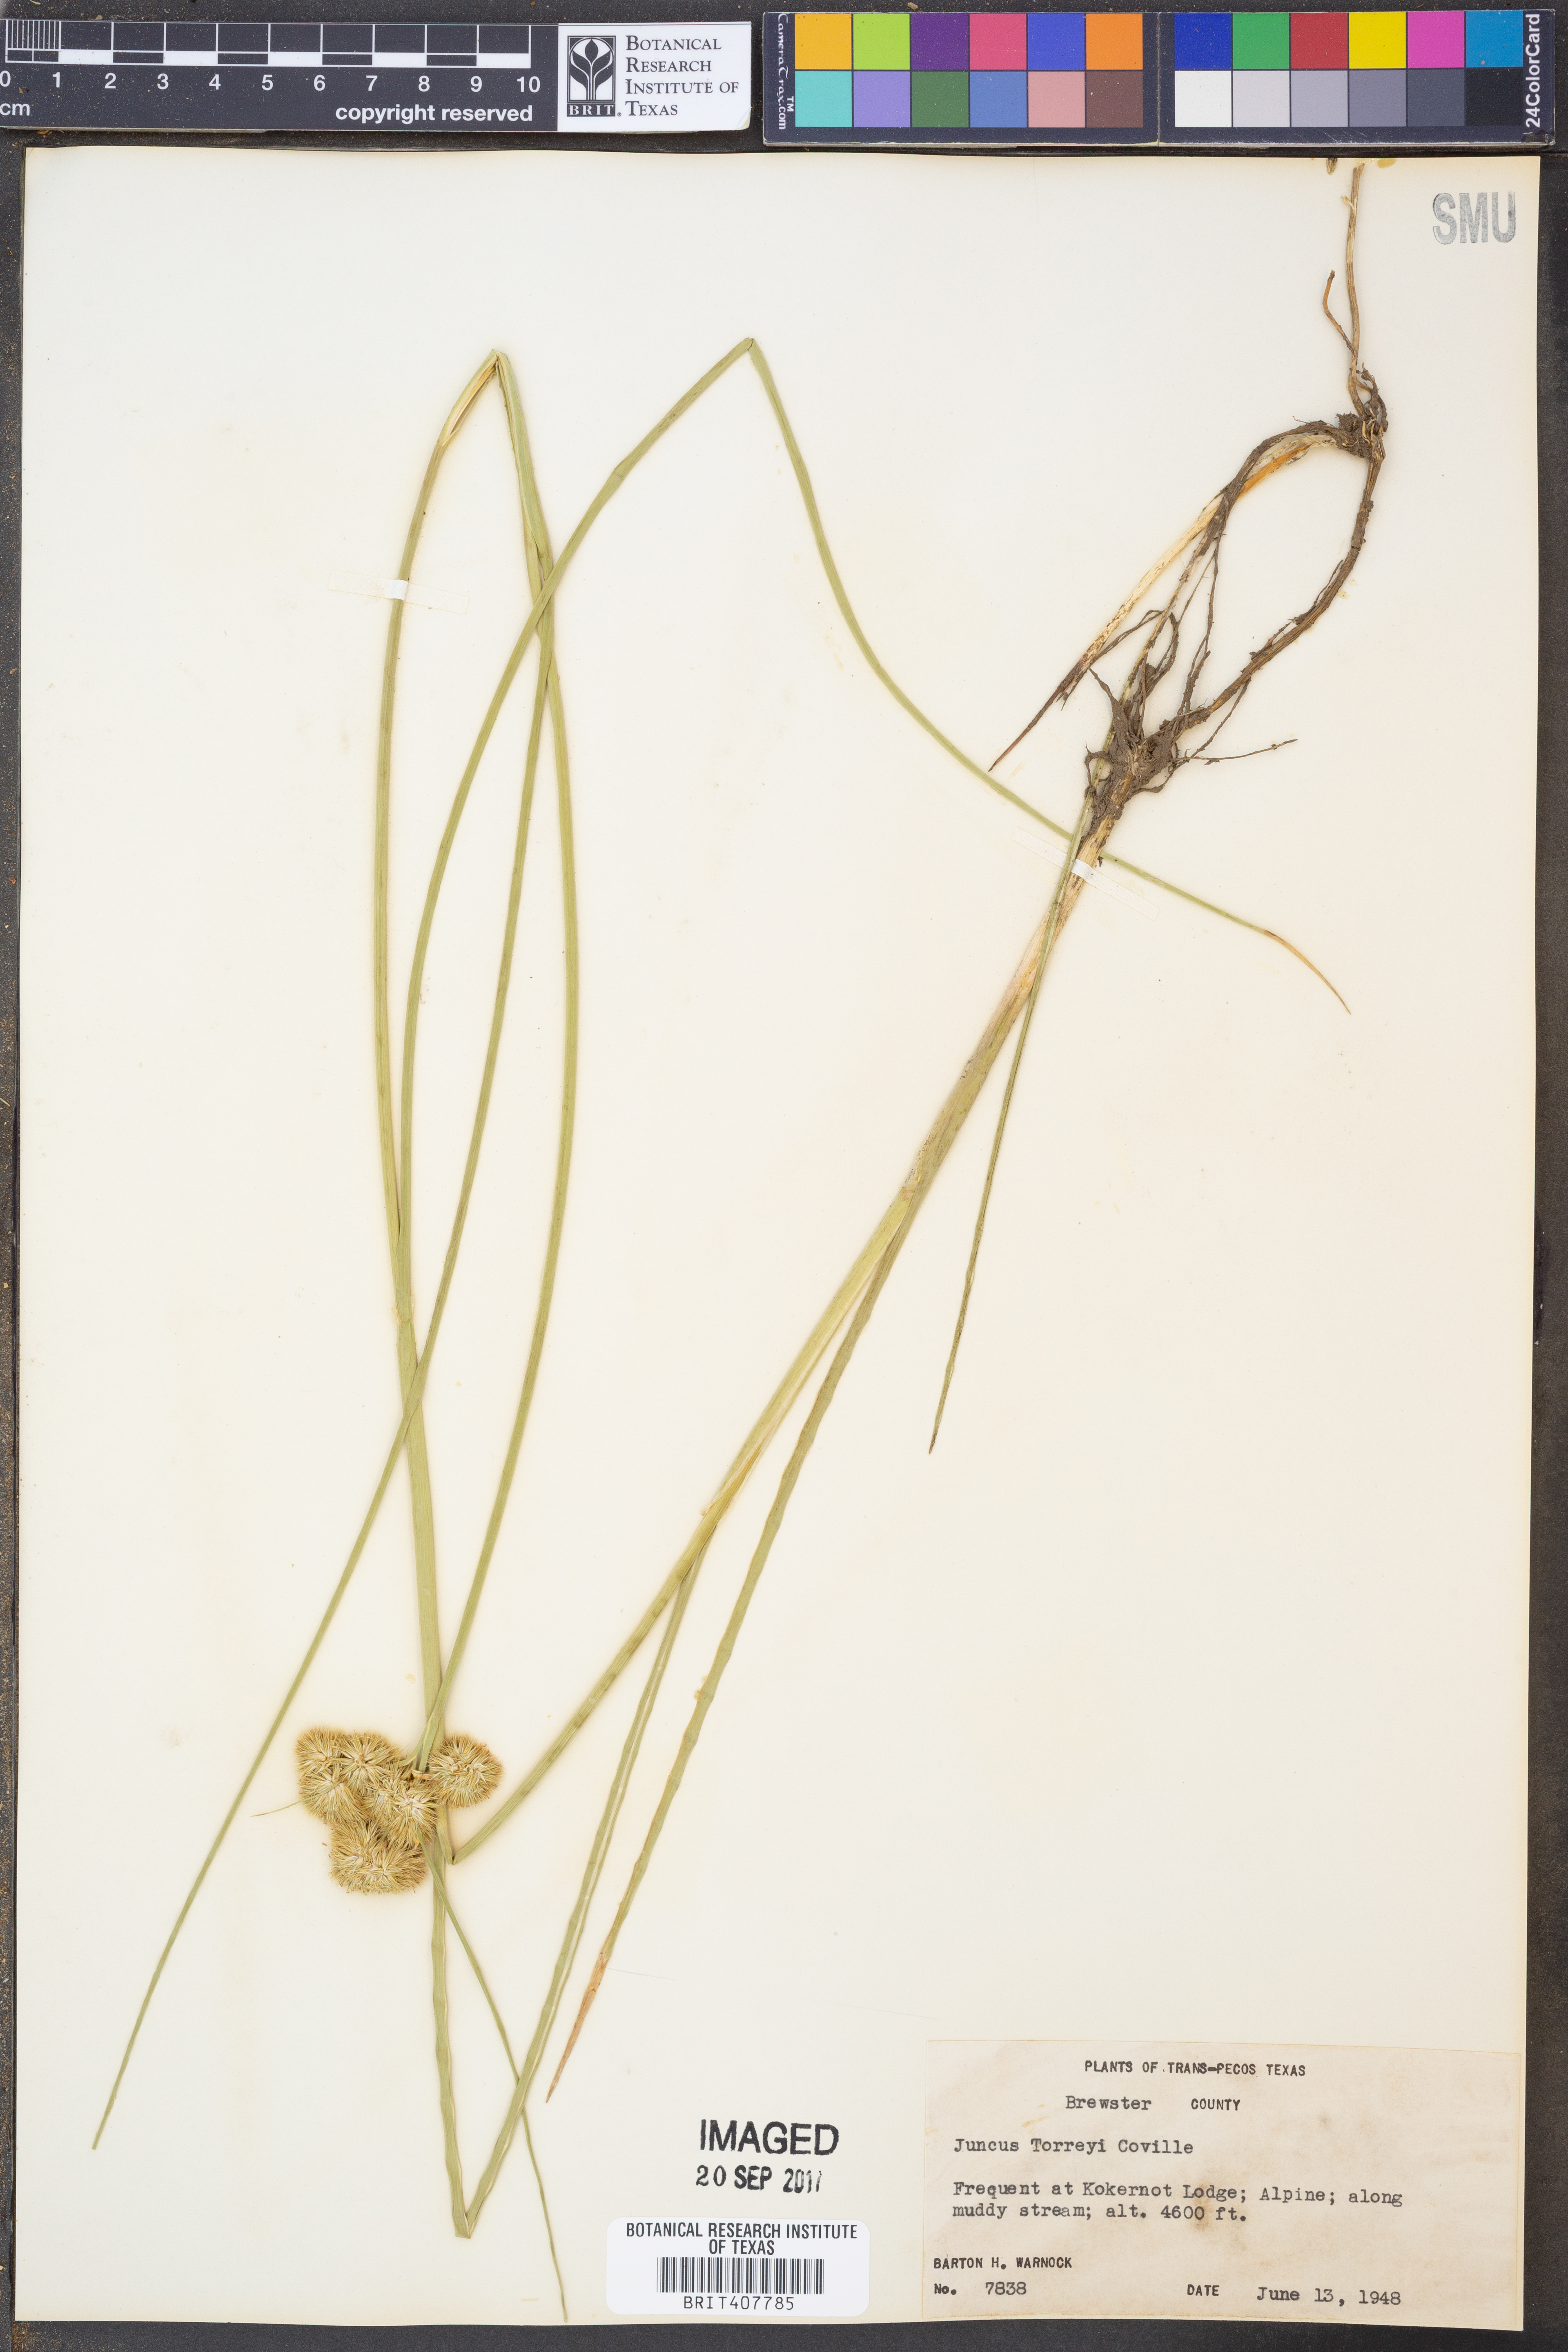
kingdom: Plantae
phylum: Tracheophyta
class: Liliopsida
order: Poales
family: Juncaceae
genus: Juncus
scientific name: Juncus torreyi
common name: Torrey's rush
